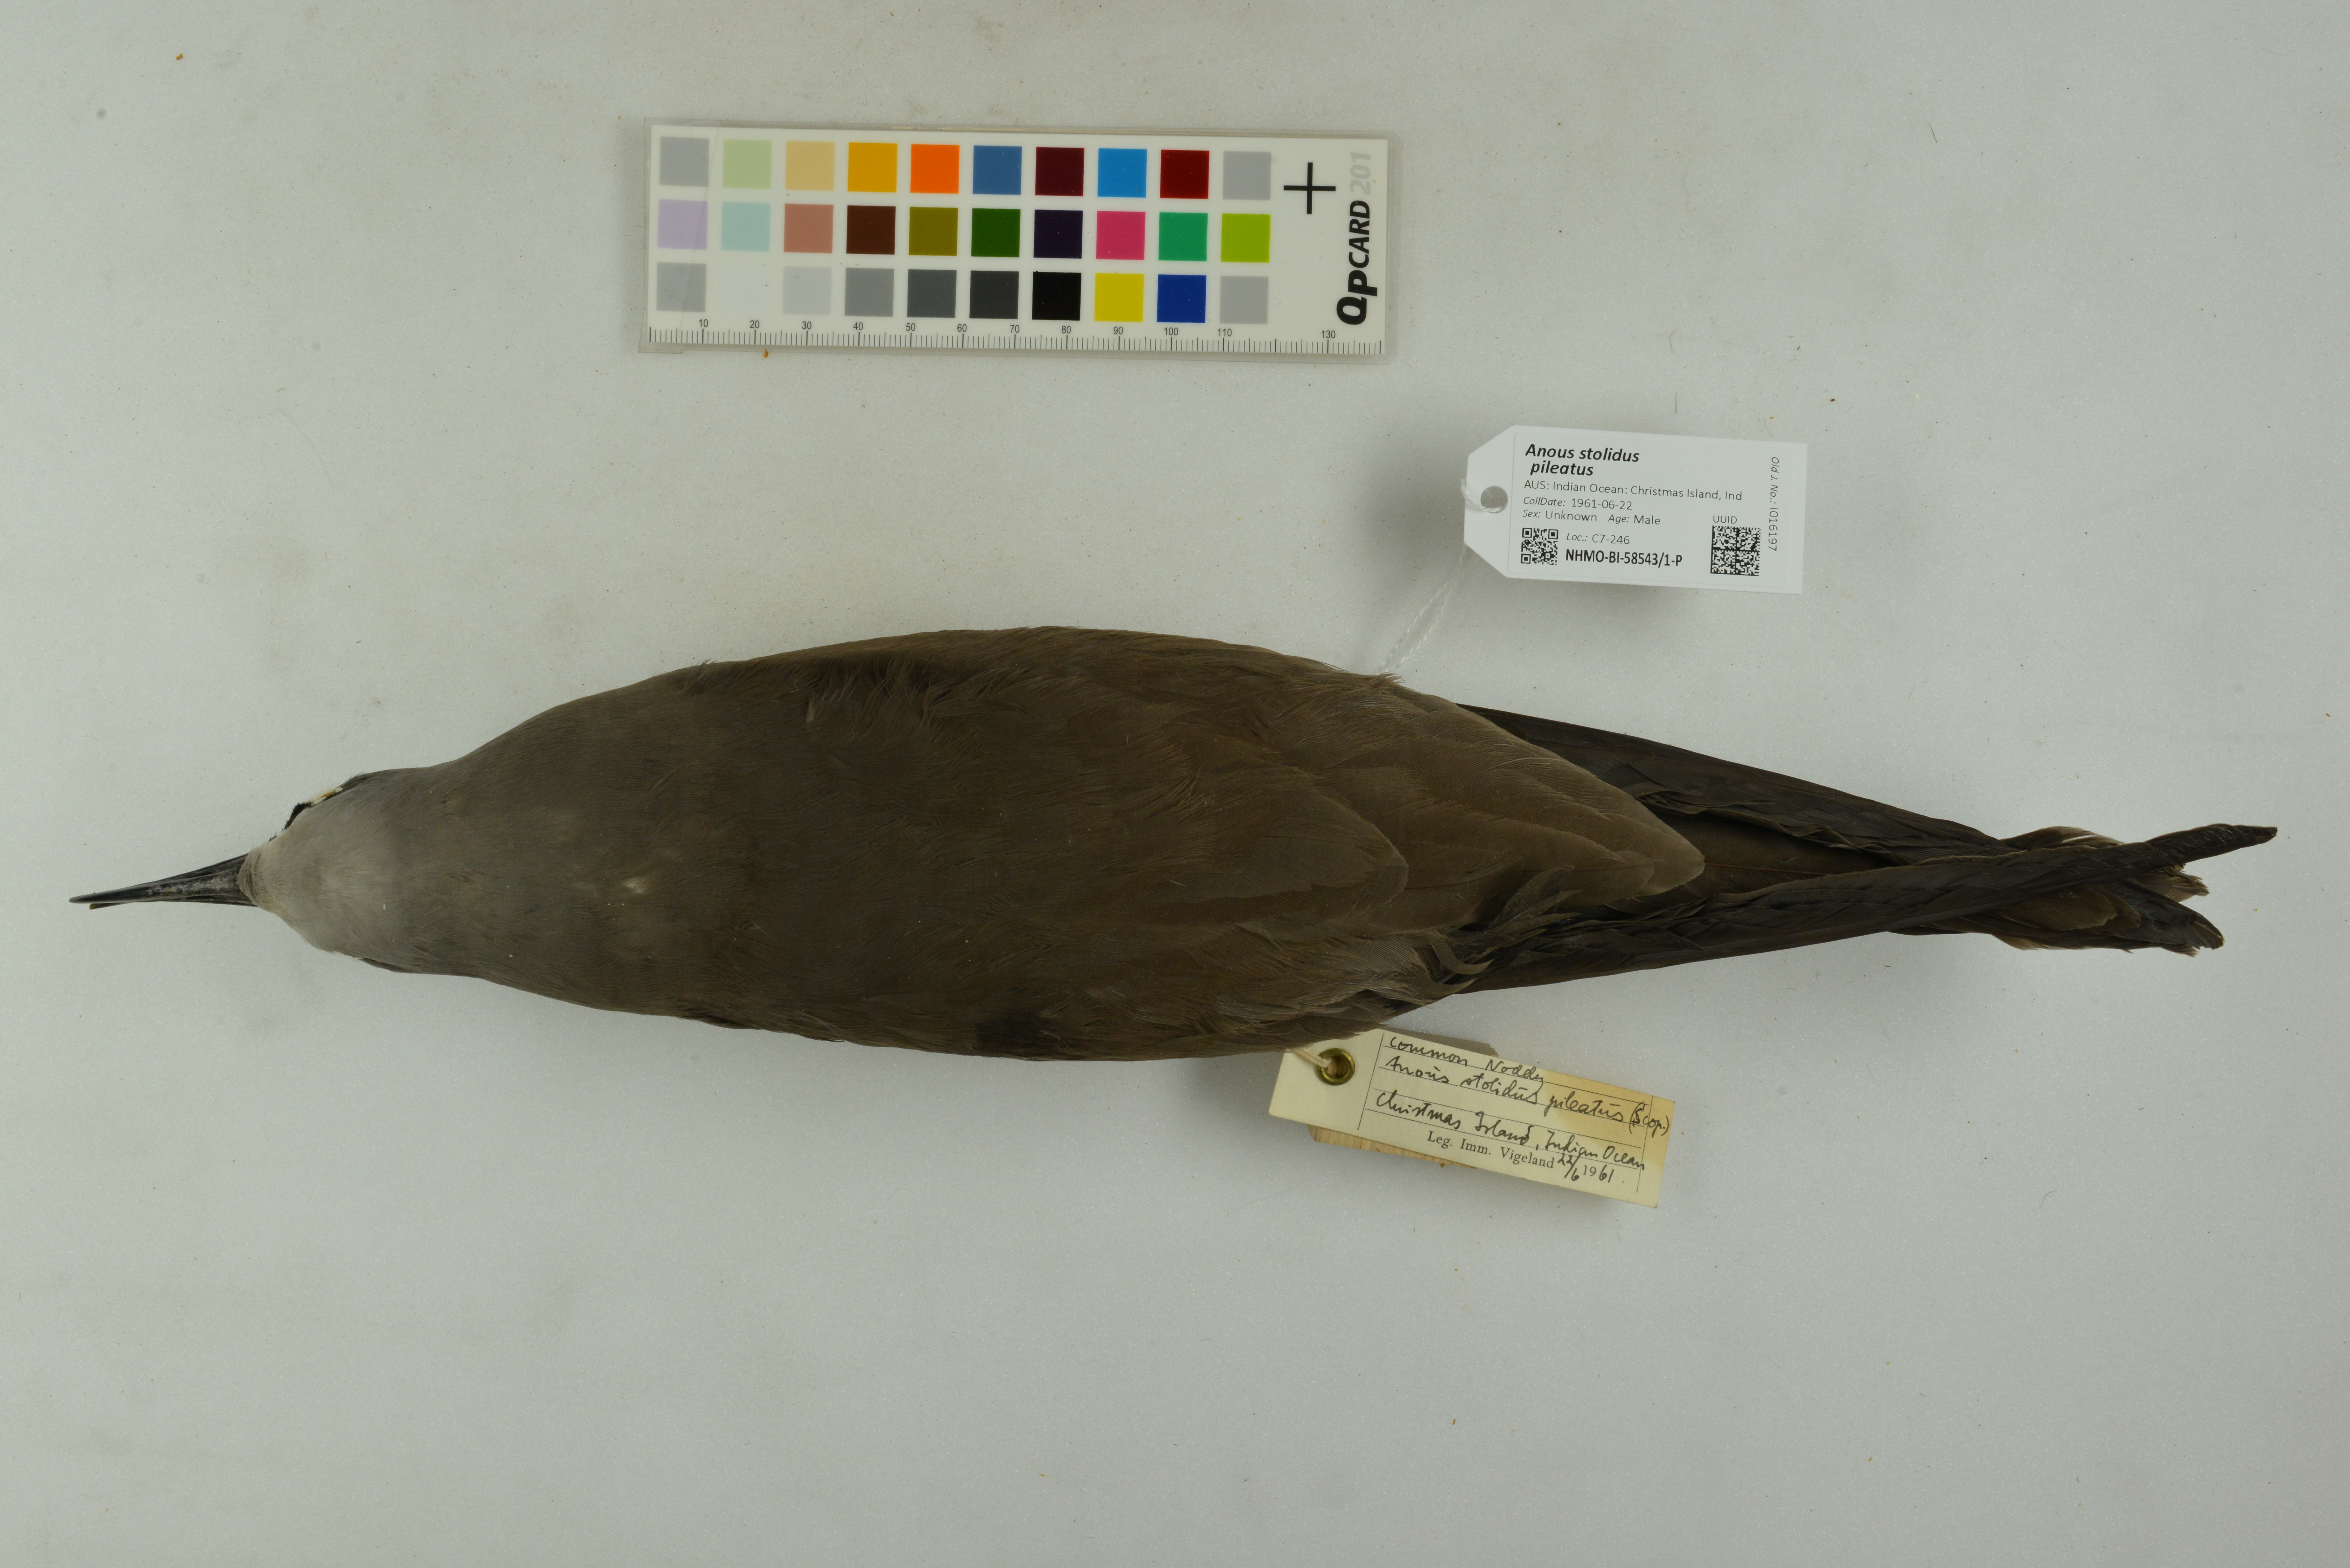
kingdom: Animalia
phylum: Chordata
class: Aves
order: Charadriiformes
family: Laridae
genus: Anous
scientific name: Anous stolidus
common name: Brown noddy
